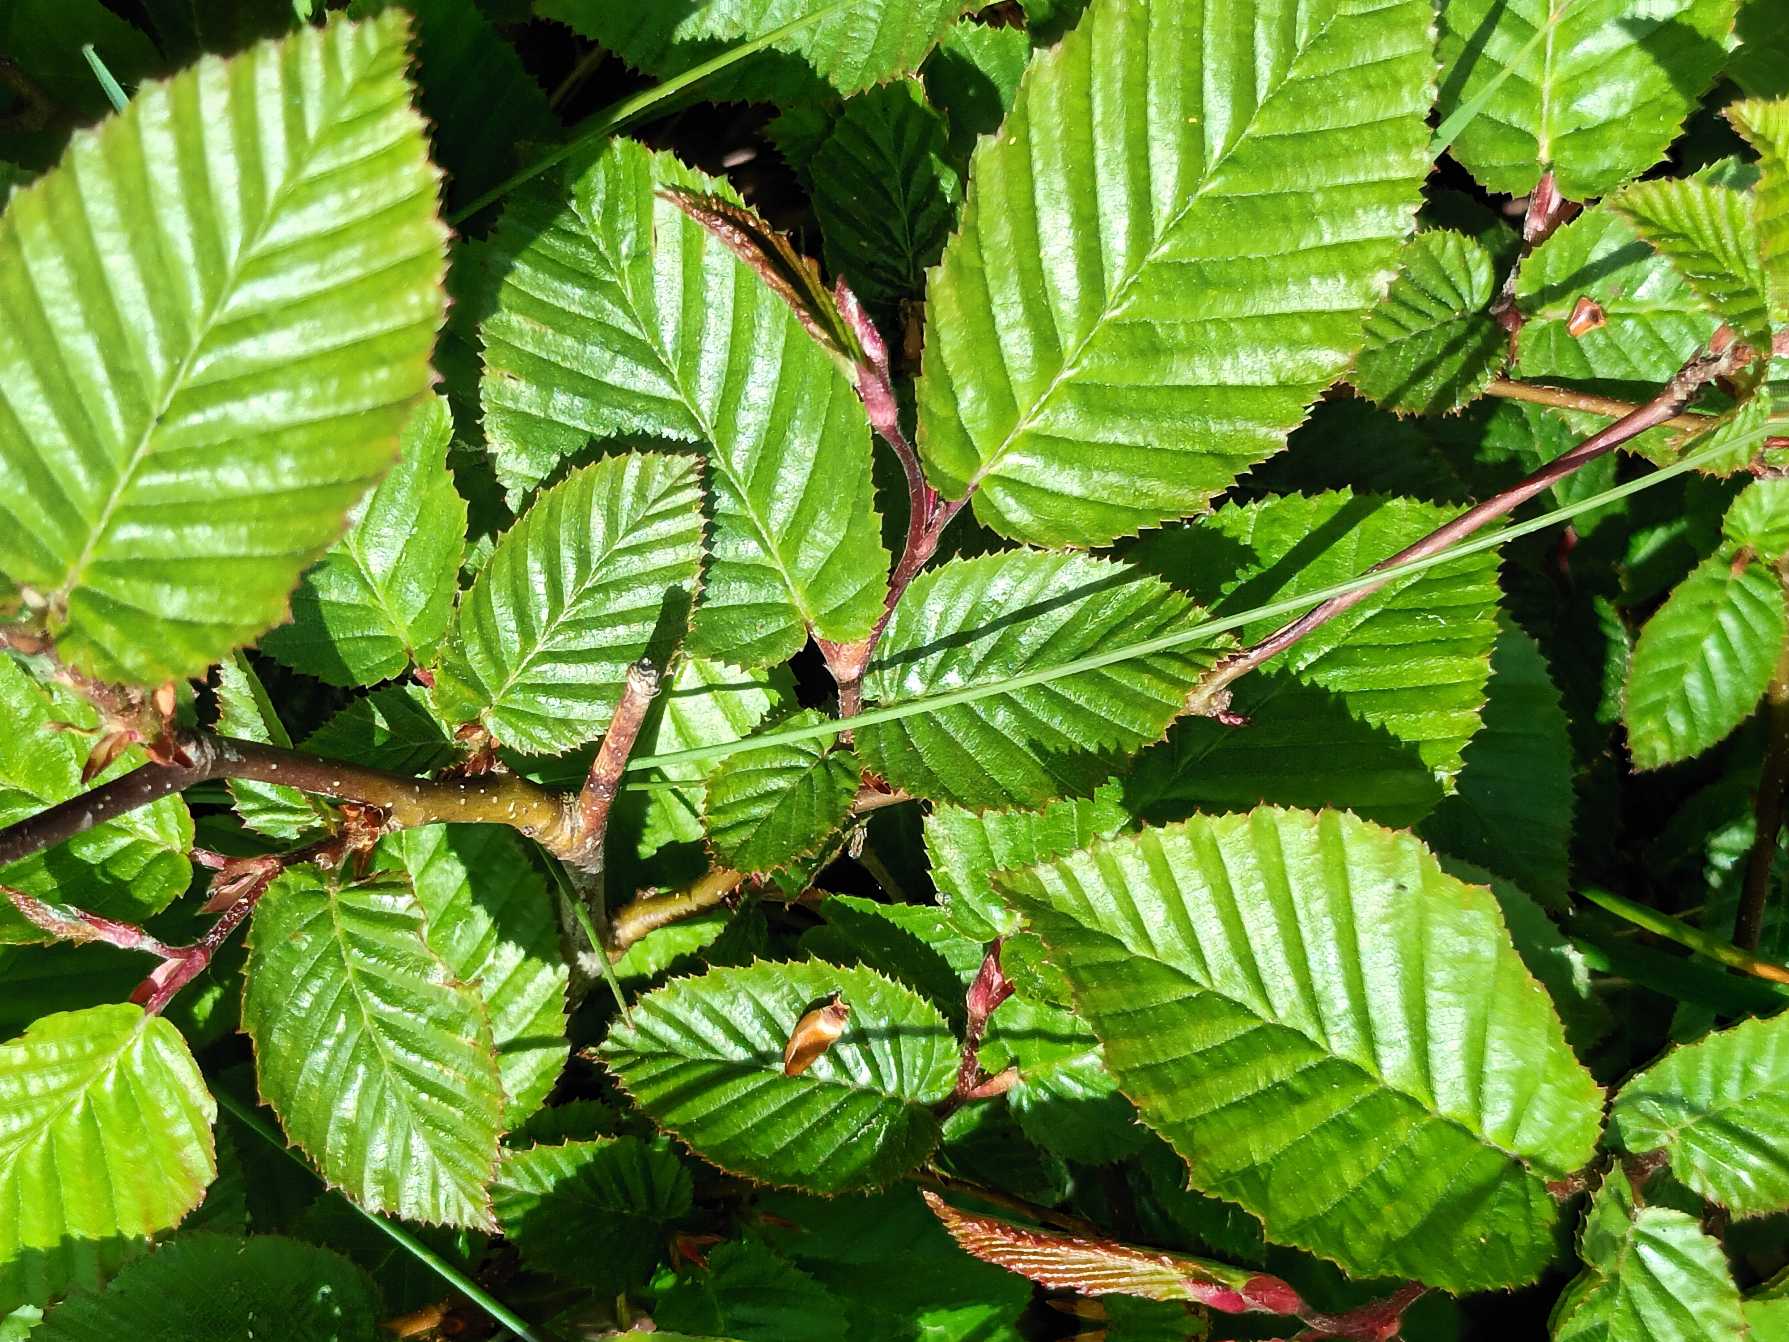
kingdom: Plantae
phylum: Tracheophyta
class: Magnoliopsida
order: Fagales
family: Betulaceae
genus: Carpinus
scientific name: Carpinus betulus
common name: Avnbøg
